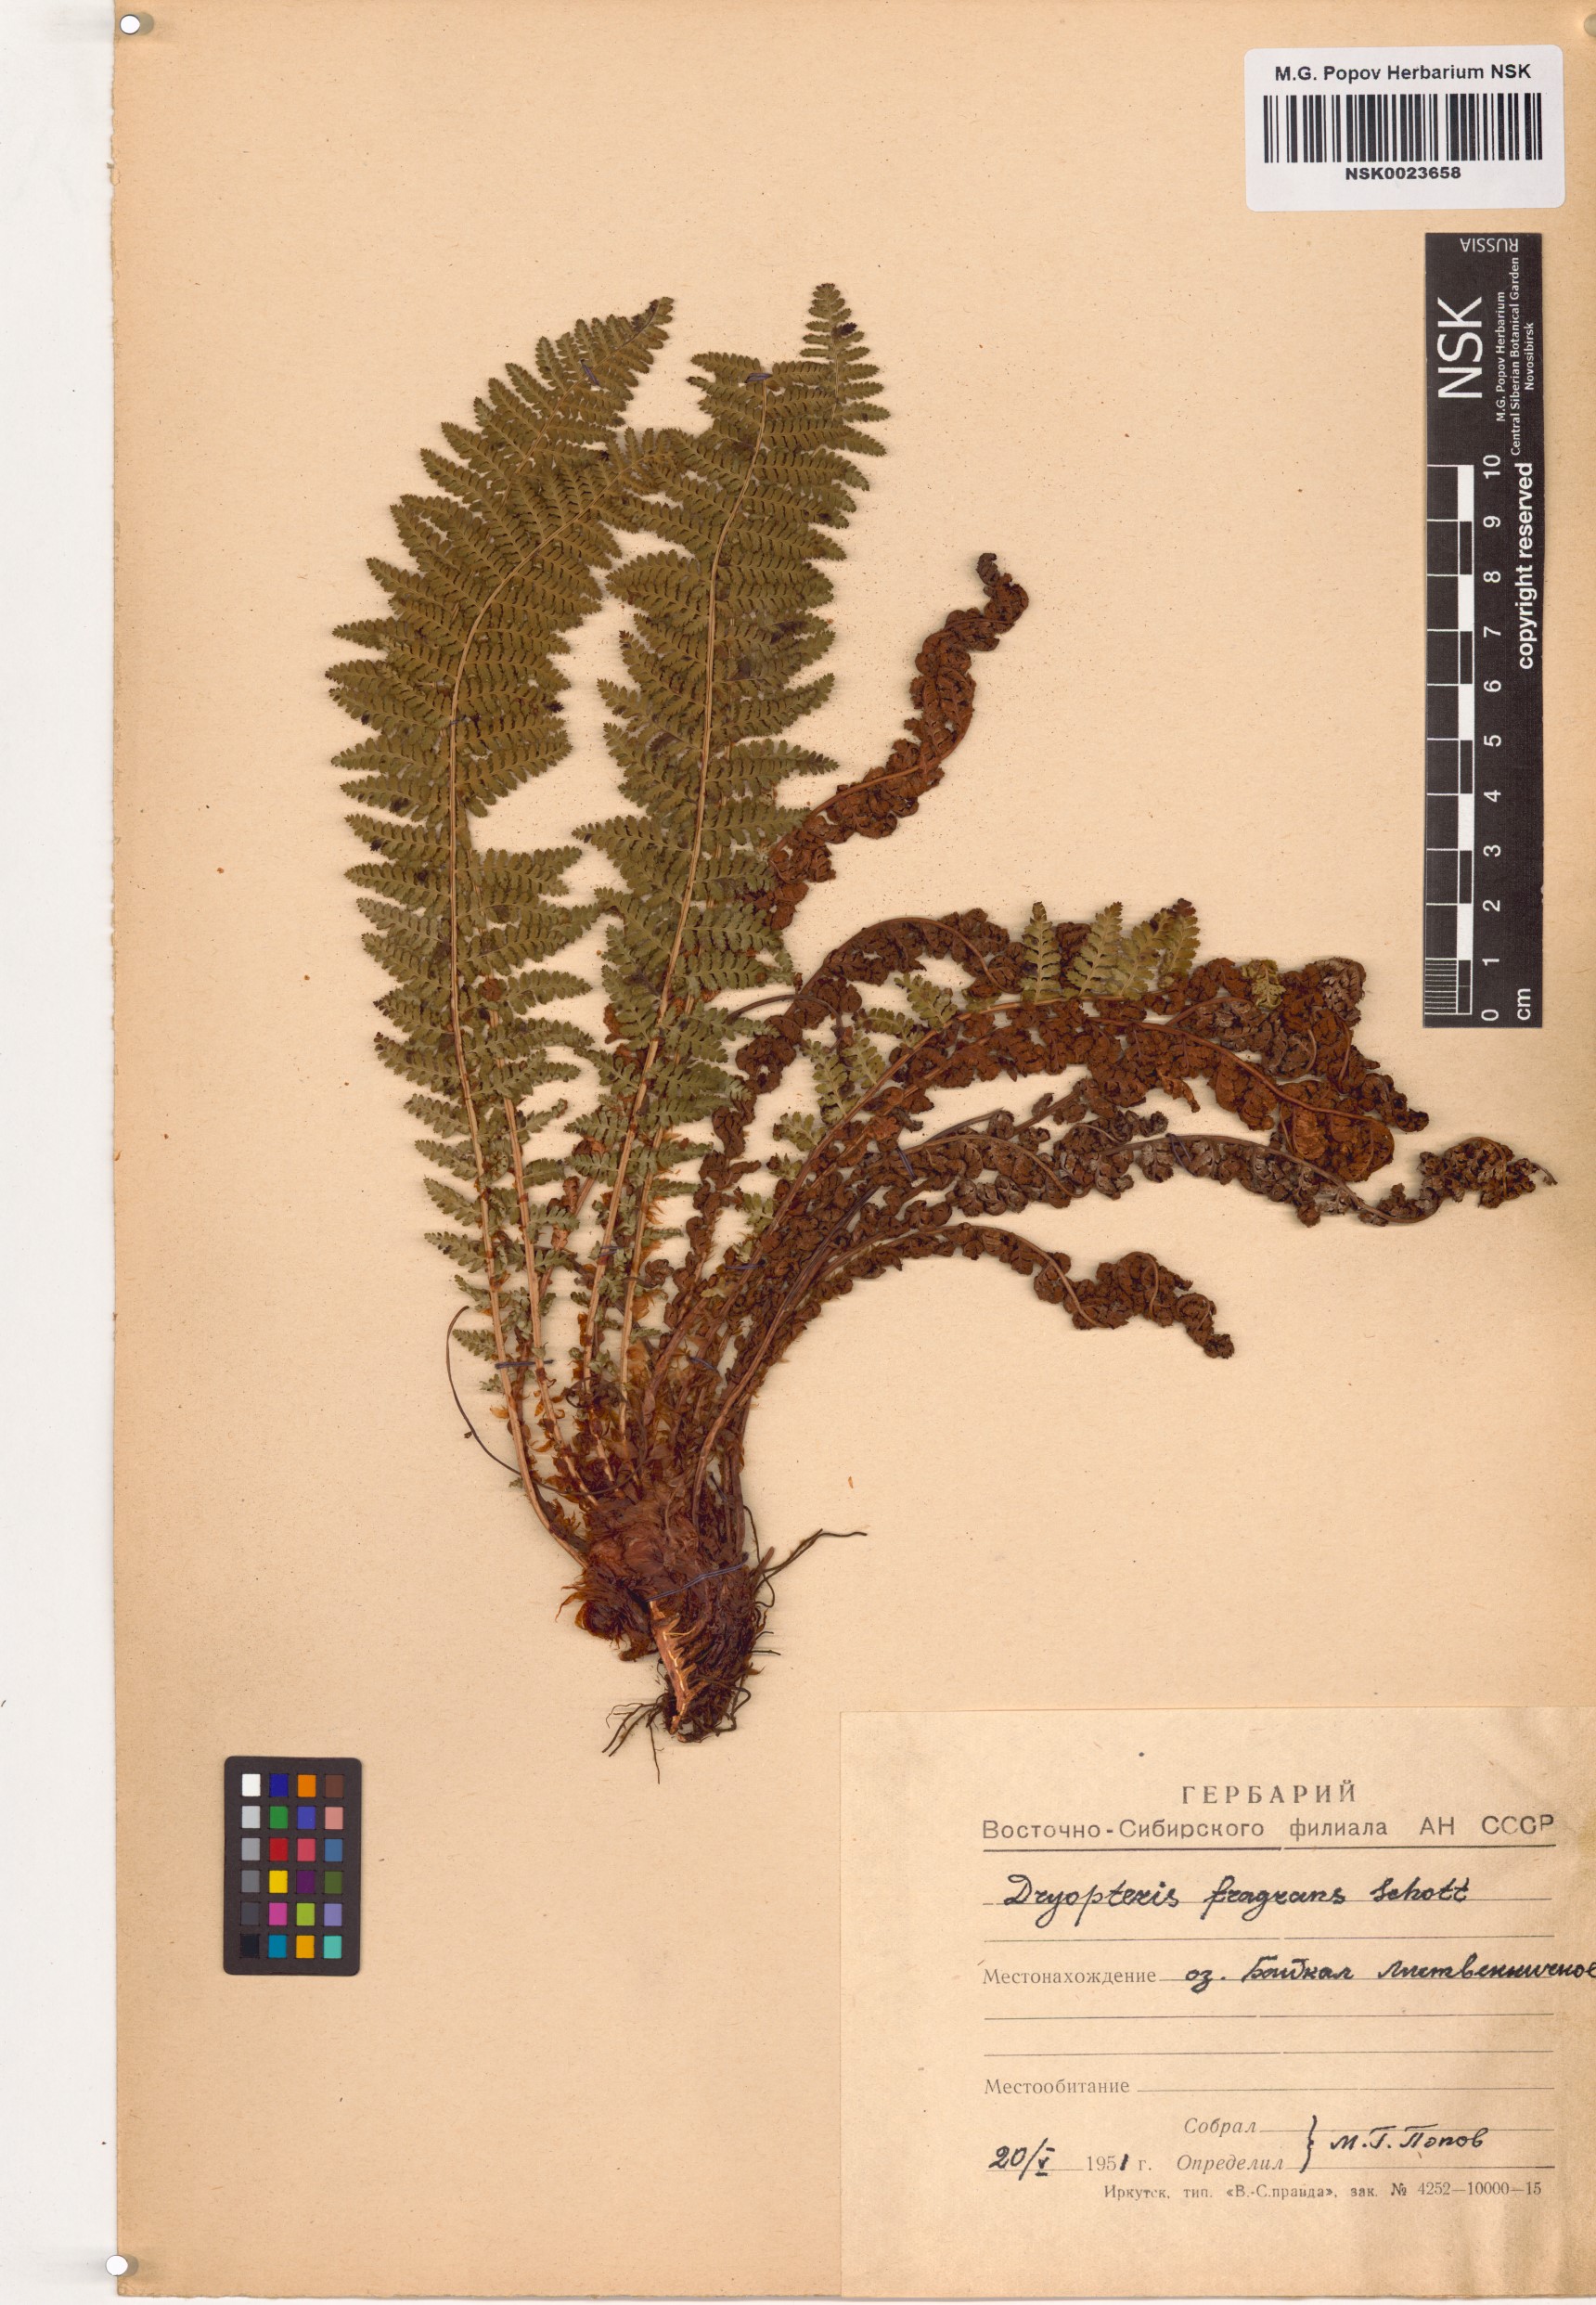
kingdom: Plantae
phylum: Tracheophyta
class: Polypodiopsida
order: Polypodiales
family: Dryopteridaceae
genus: Dryopteris
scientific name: Dryopteris fragrans
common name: Fragrant wood fern
